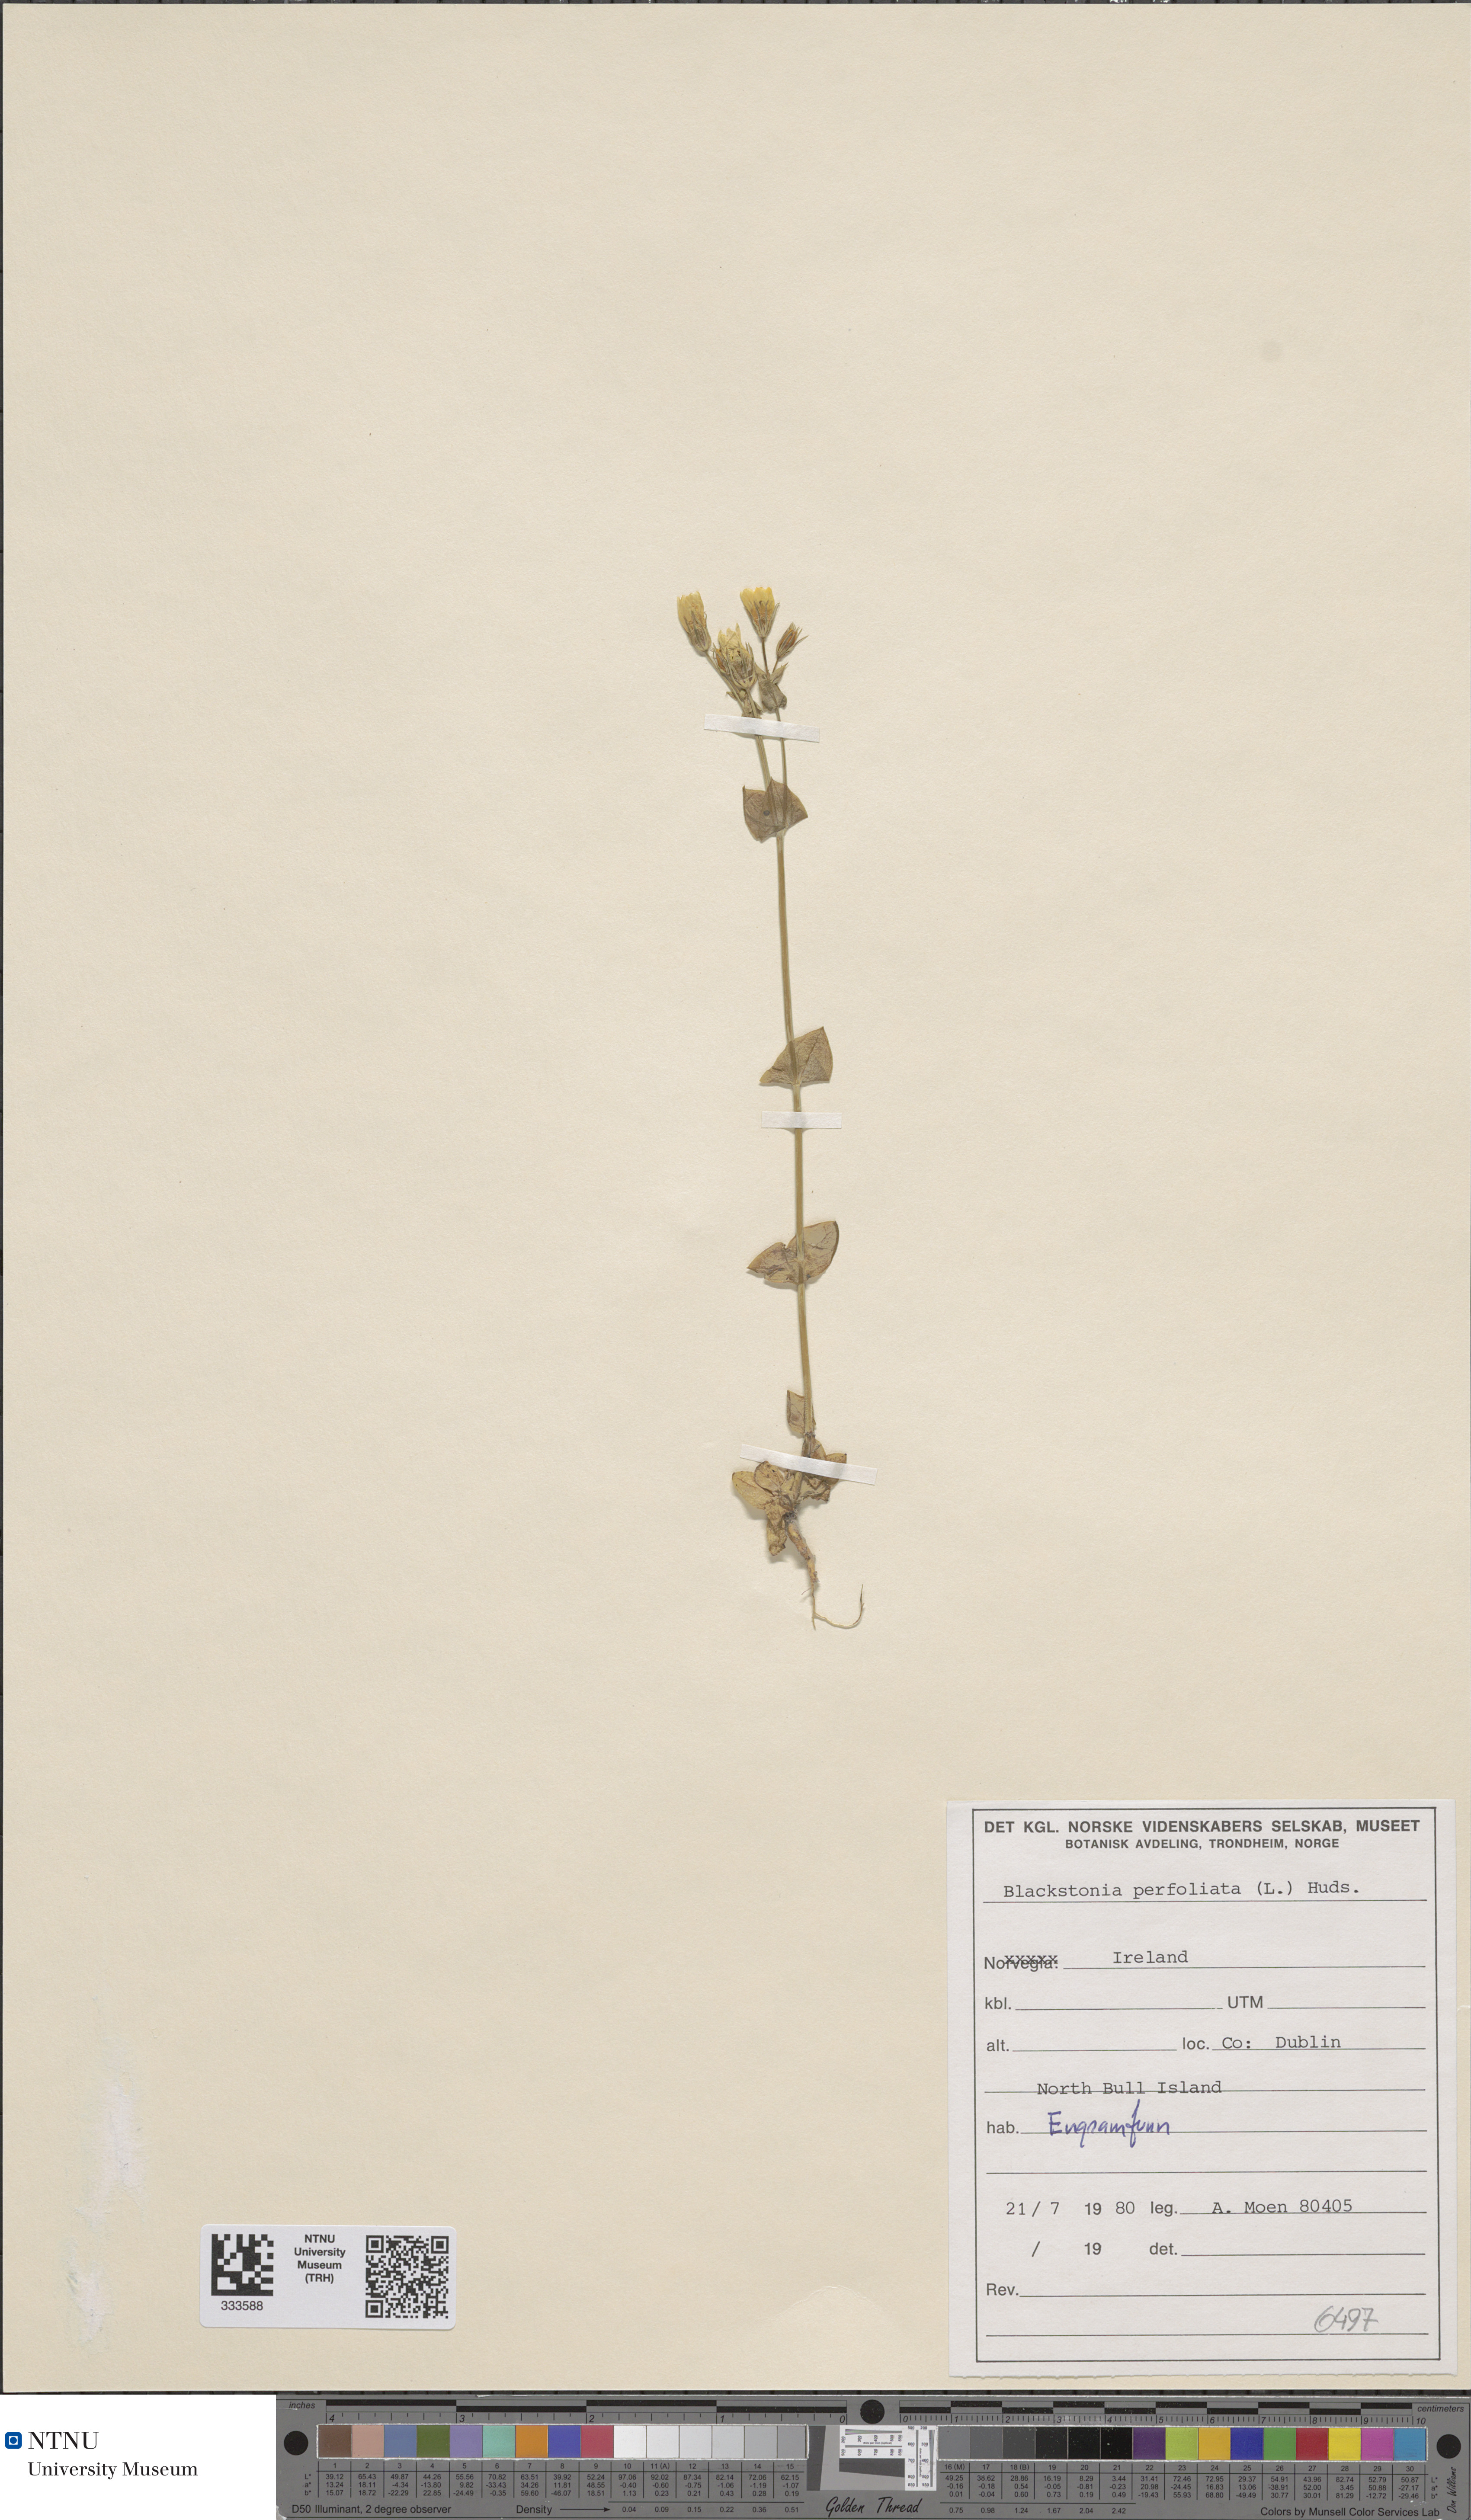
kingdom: Plantae
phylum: Tracheophyta
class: Magnoliopsida
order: Gentianales
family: Gentianaceae
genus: Blackstonia
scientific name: Blackstonia perfoliata
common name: Yellow-wort
